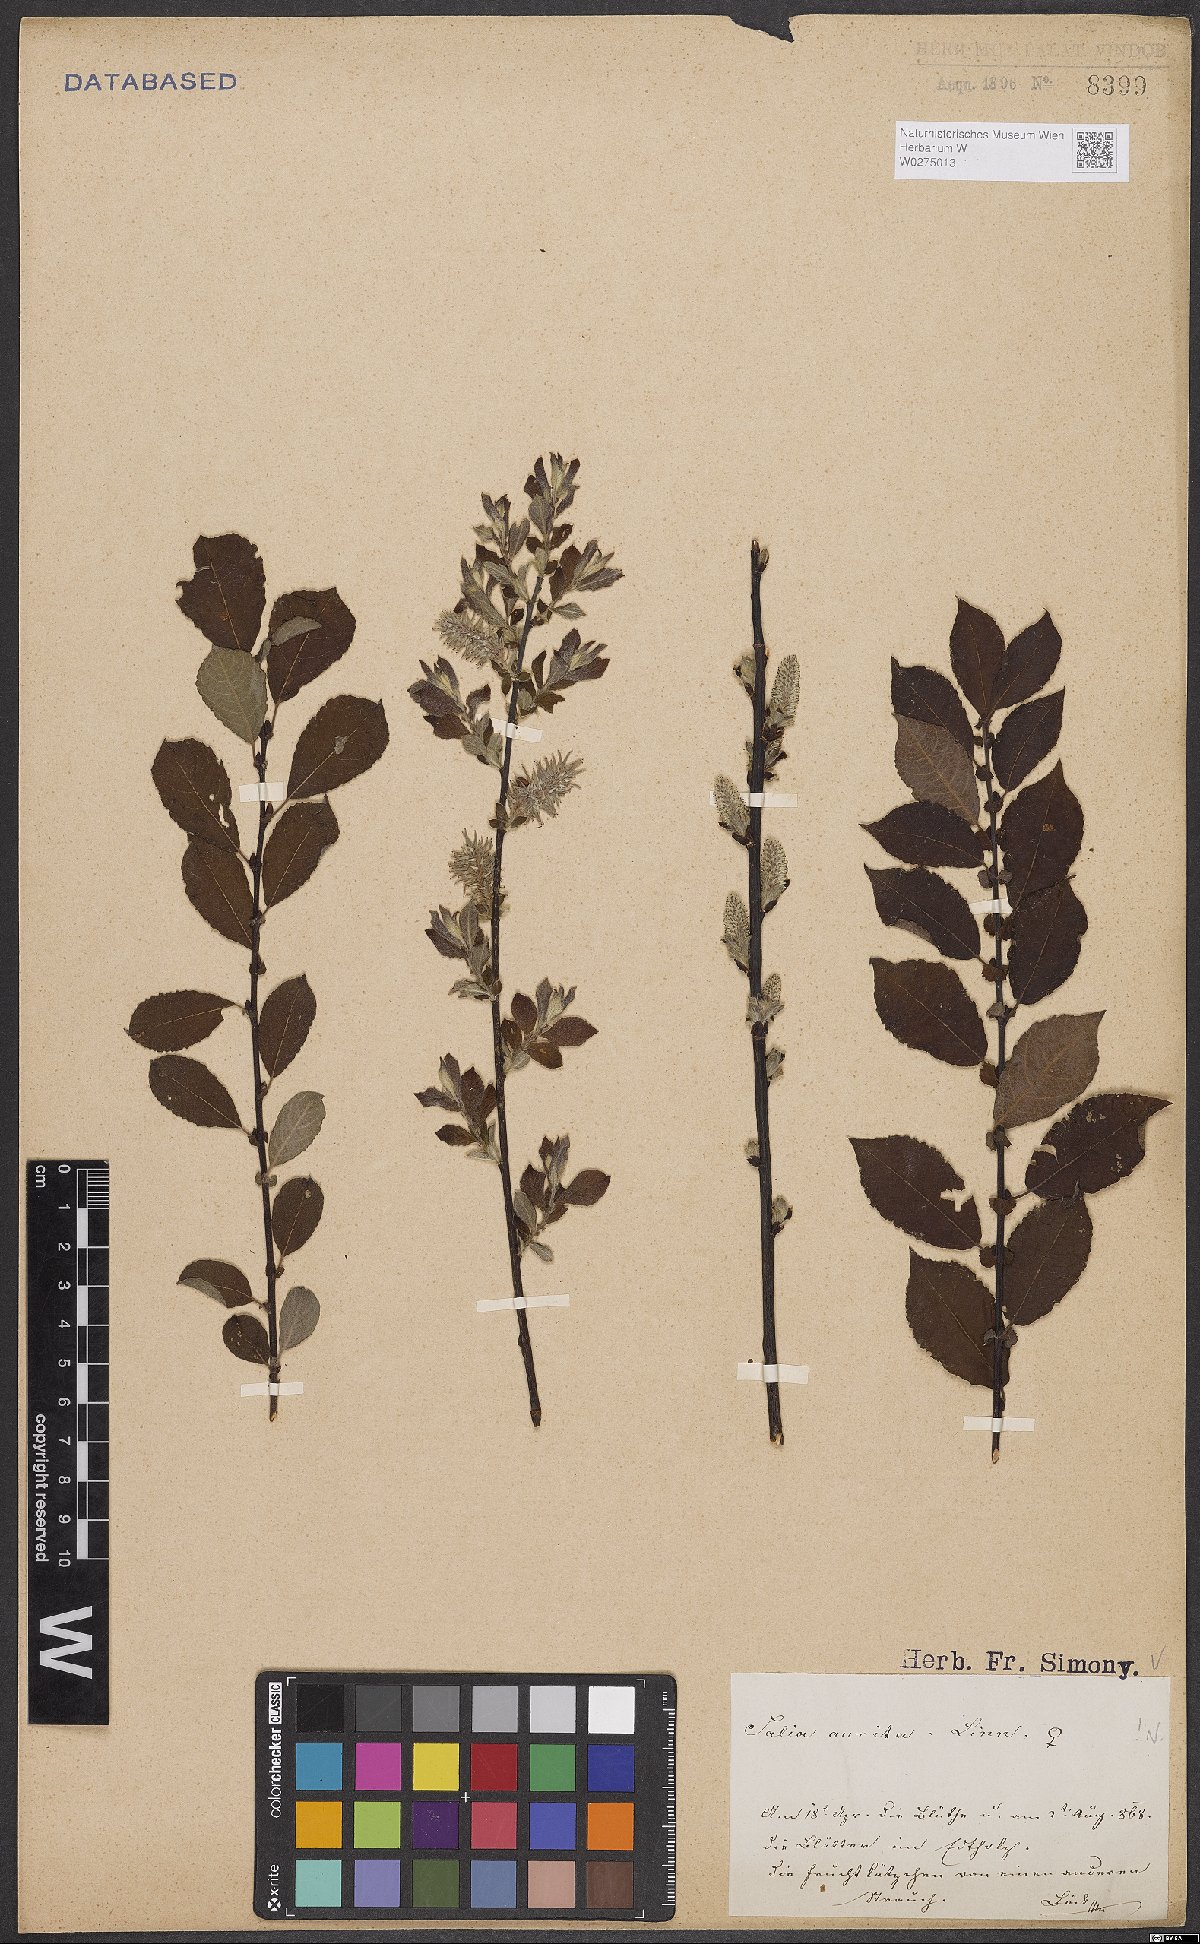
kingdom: Plantae
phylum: Tracheophyta
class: Magnoliopsida
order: Malpighiales
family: Salicaceae
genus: Salix
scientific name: Salix aurita
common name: Eared willow
